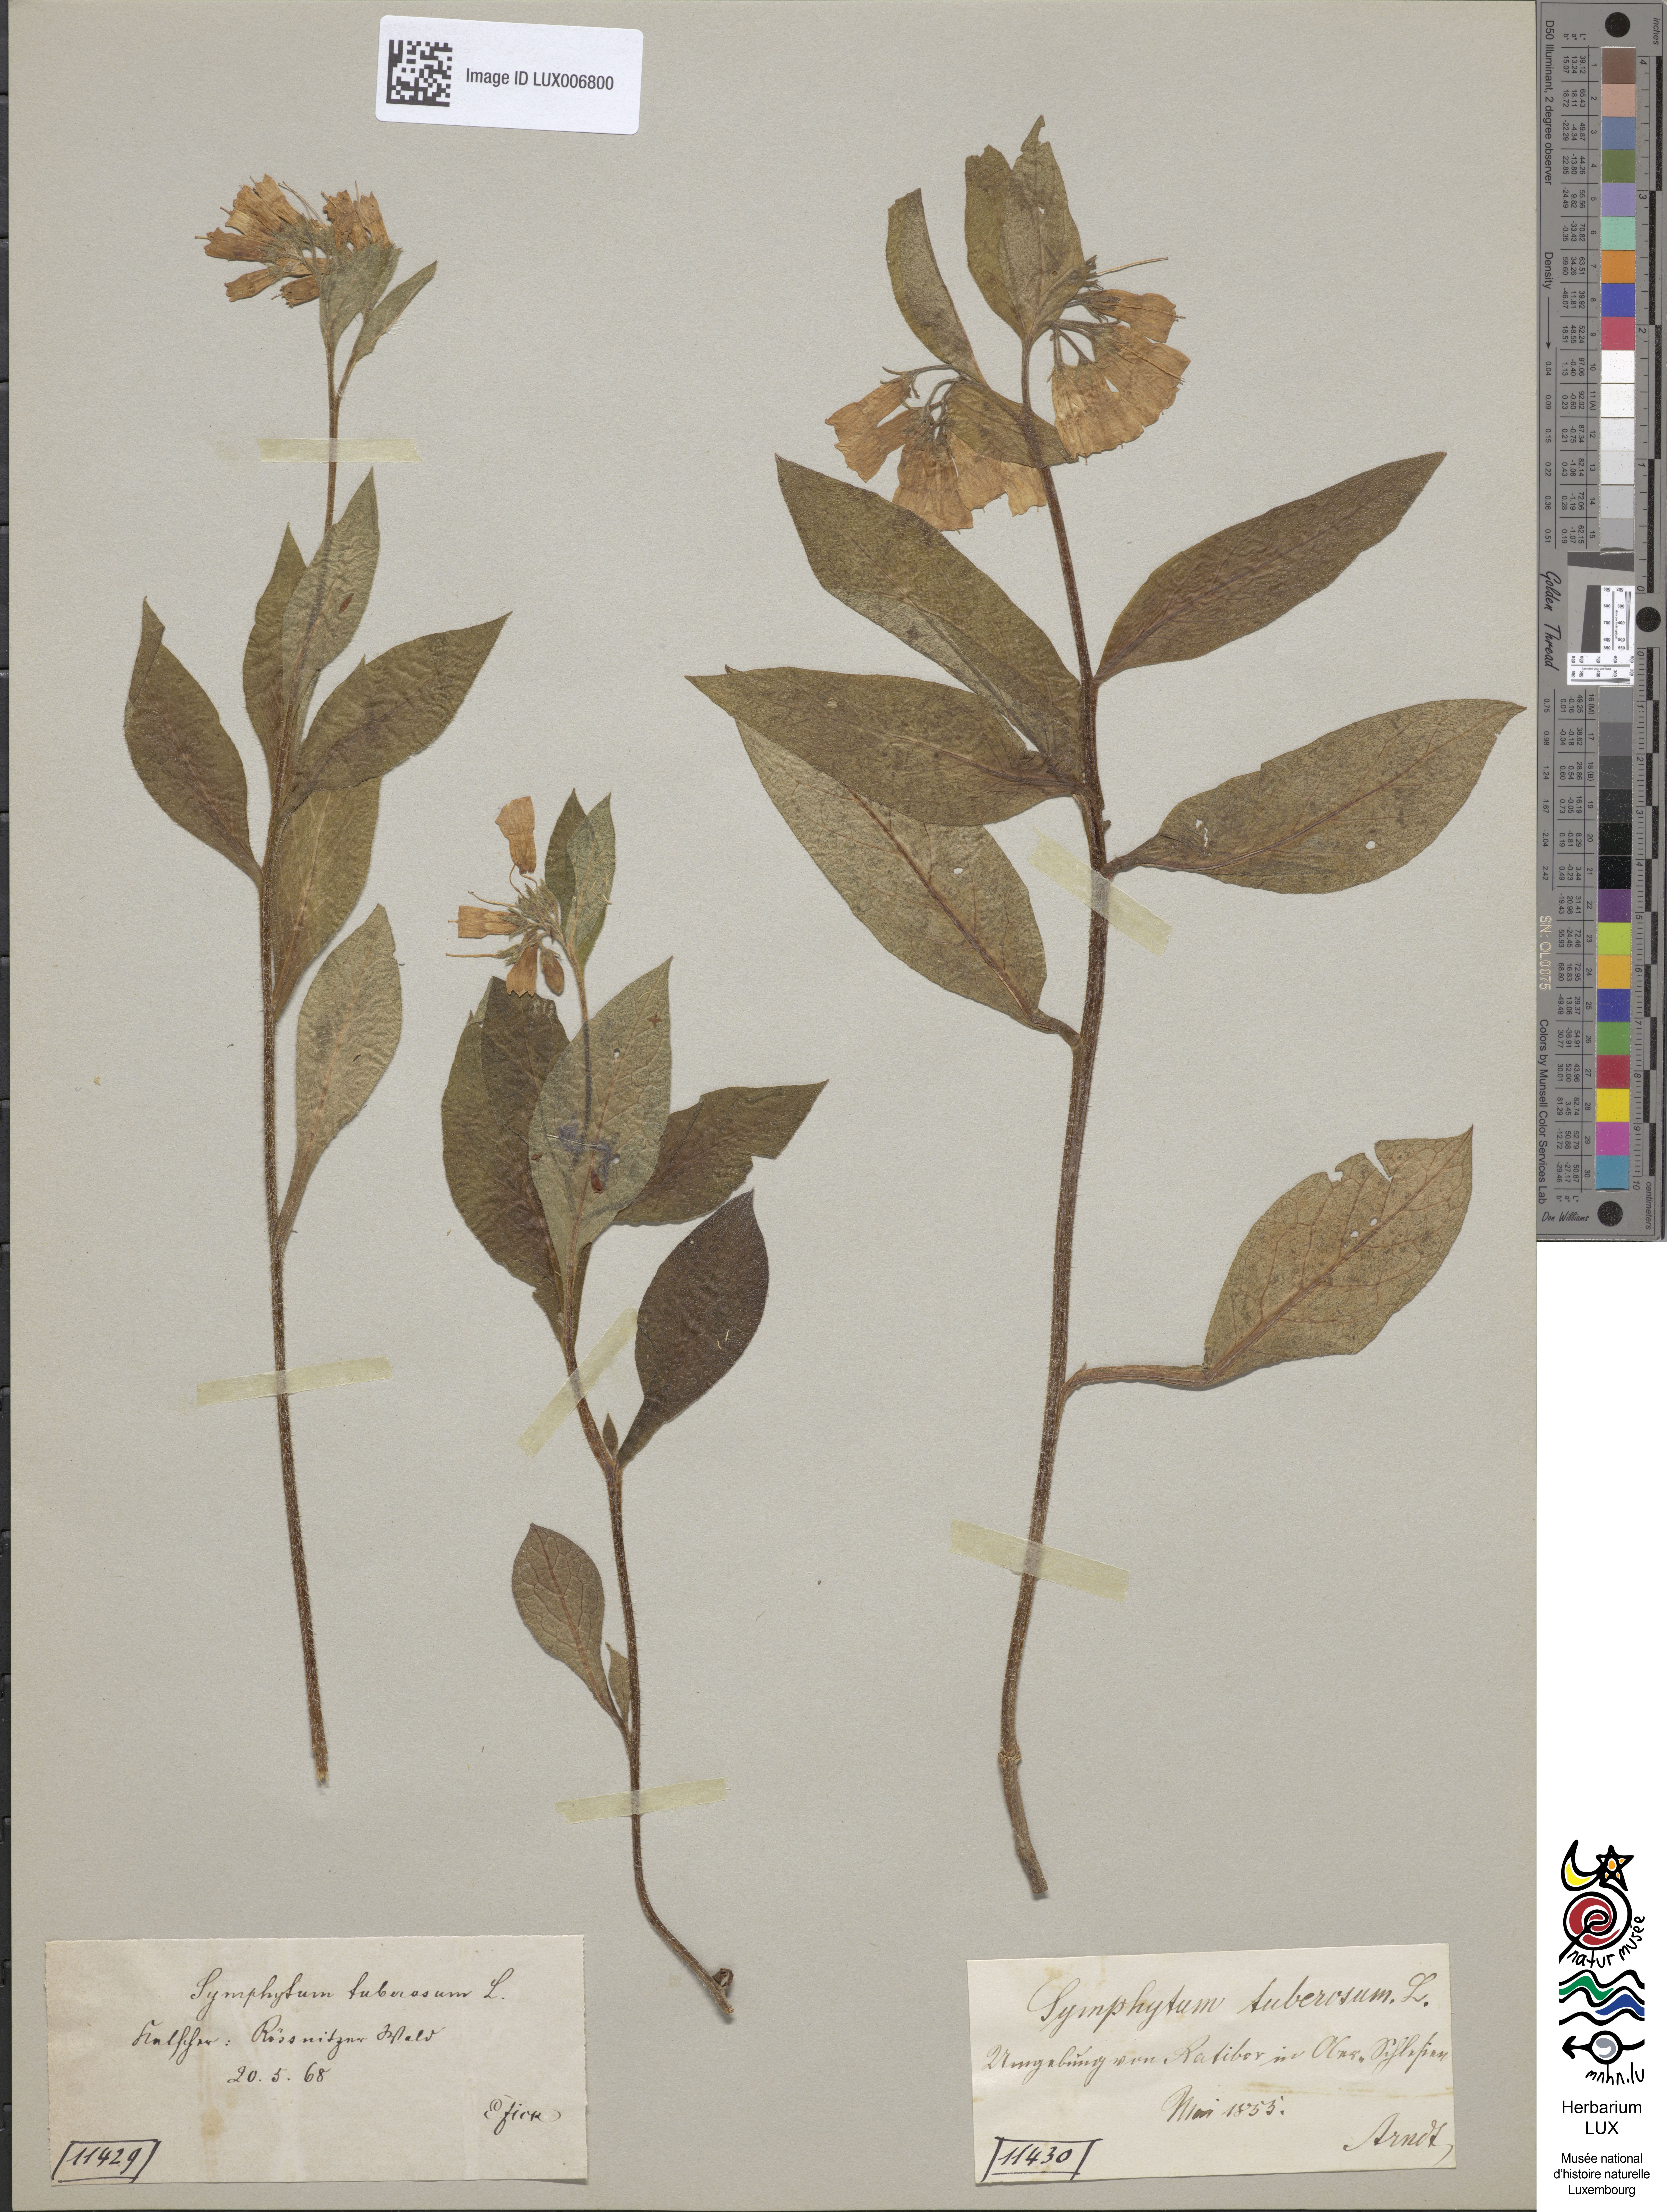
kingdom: Plantae
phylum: Tracheophyta
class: Magnoliopsida
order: Boraginales
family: Boraginaceae
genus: Symphytum
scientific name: Symphytum tuberosum
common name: Tuberous comfrey
